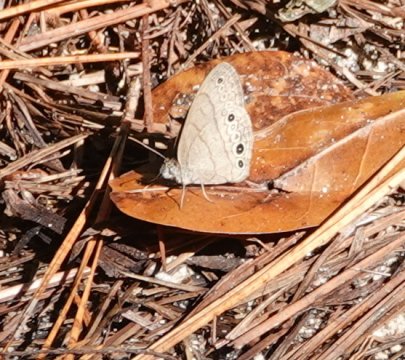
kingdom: Animalia
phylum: Arthropoda
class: Insecta
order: Lepidoptera
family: Papilionidae
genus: Pterourus
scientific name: Pterourus palamedes
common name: Palamedes Swallowtail
